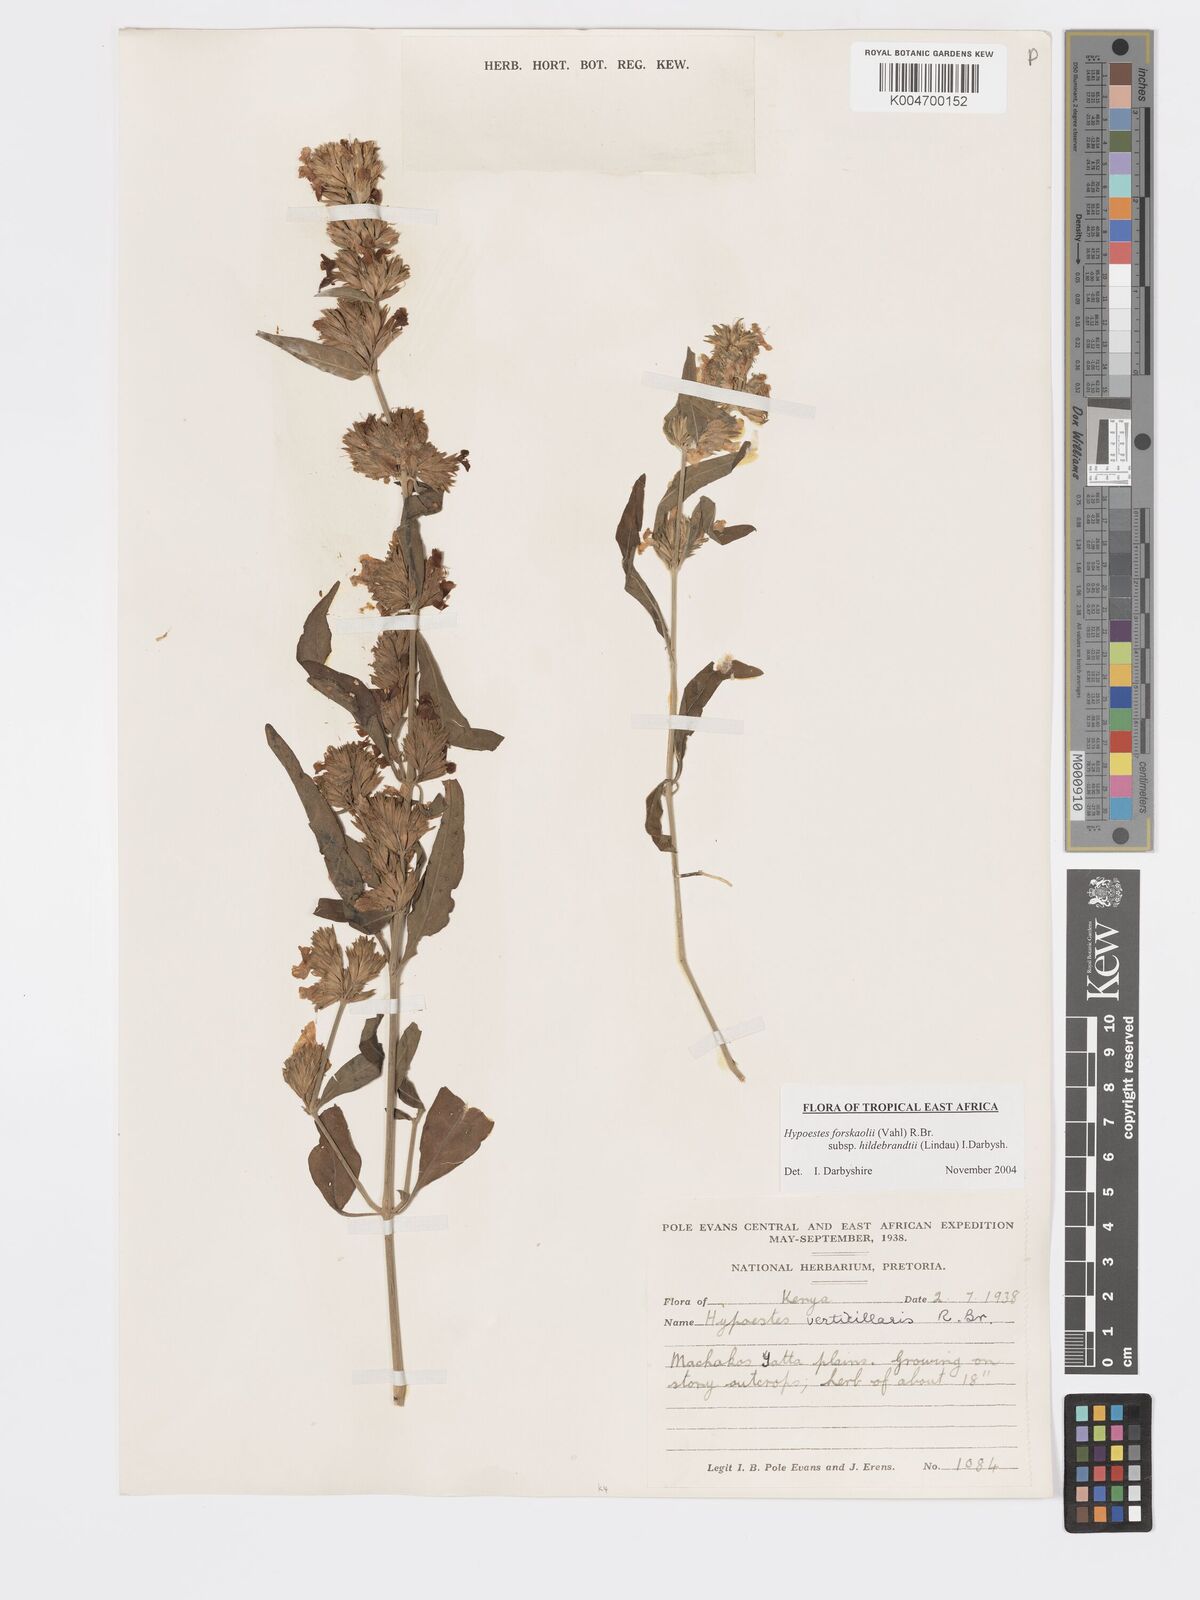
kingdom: Plantae
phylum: Tracheophyta
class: Magnoliopsida
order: Lamiales
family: Acanthaceae
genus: Hypoestes
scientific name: Hypoestes forskaolii
